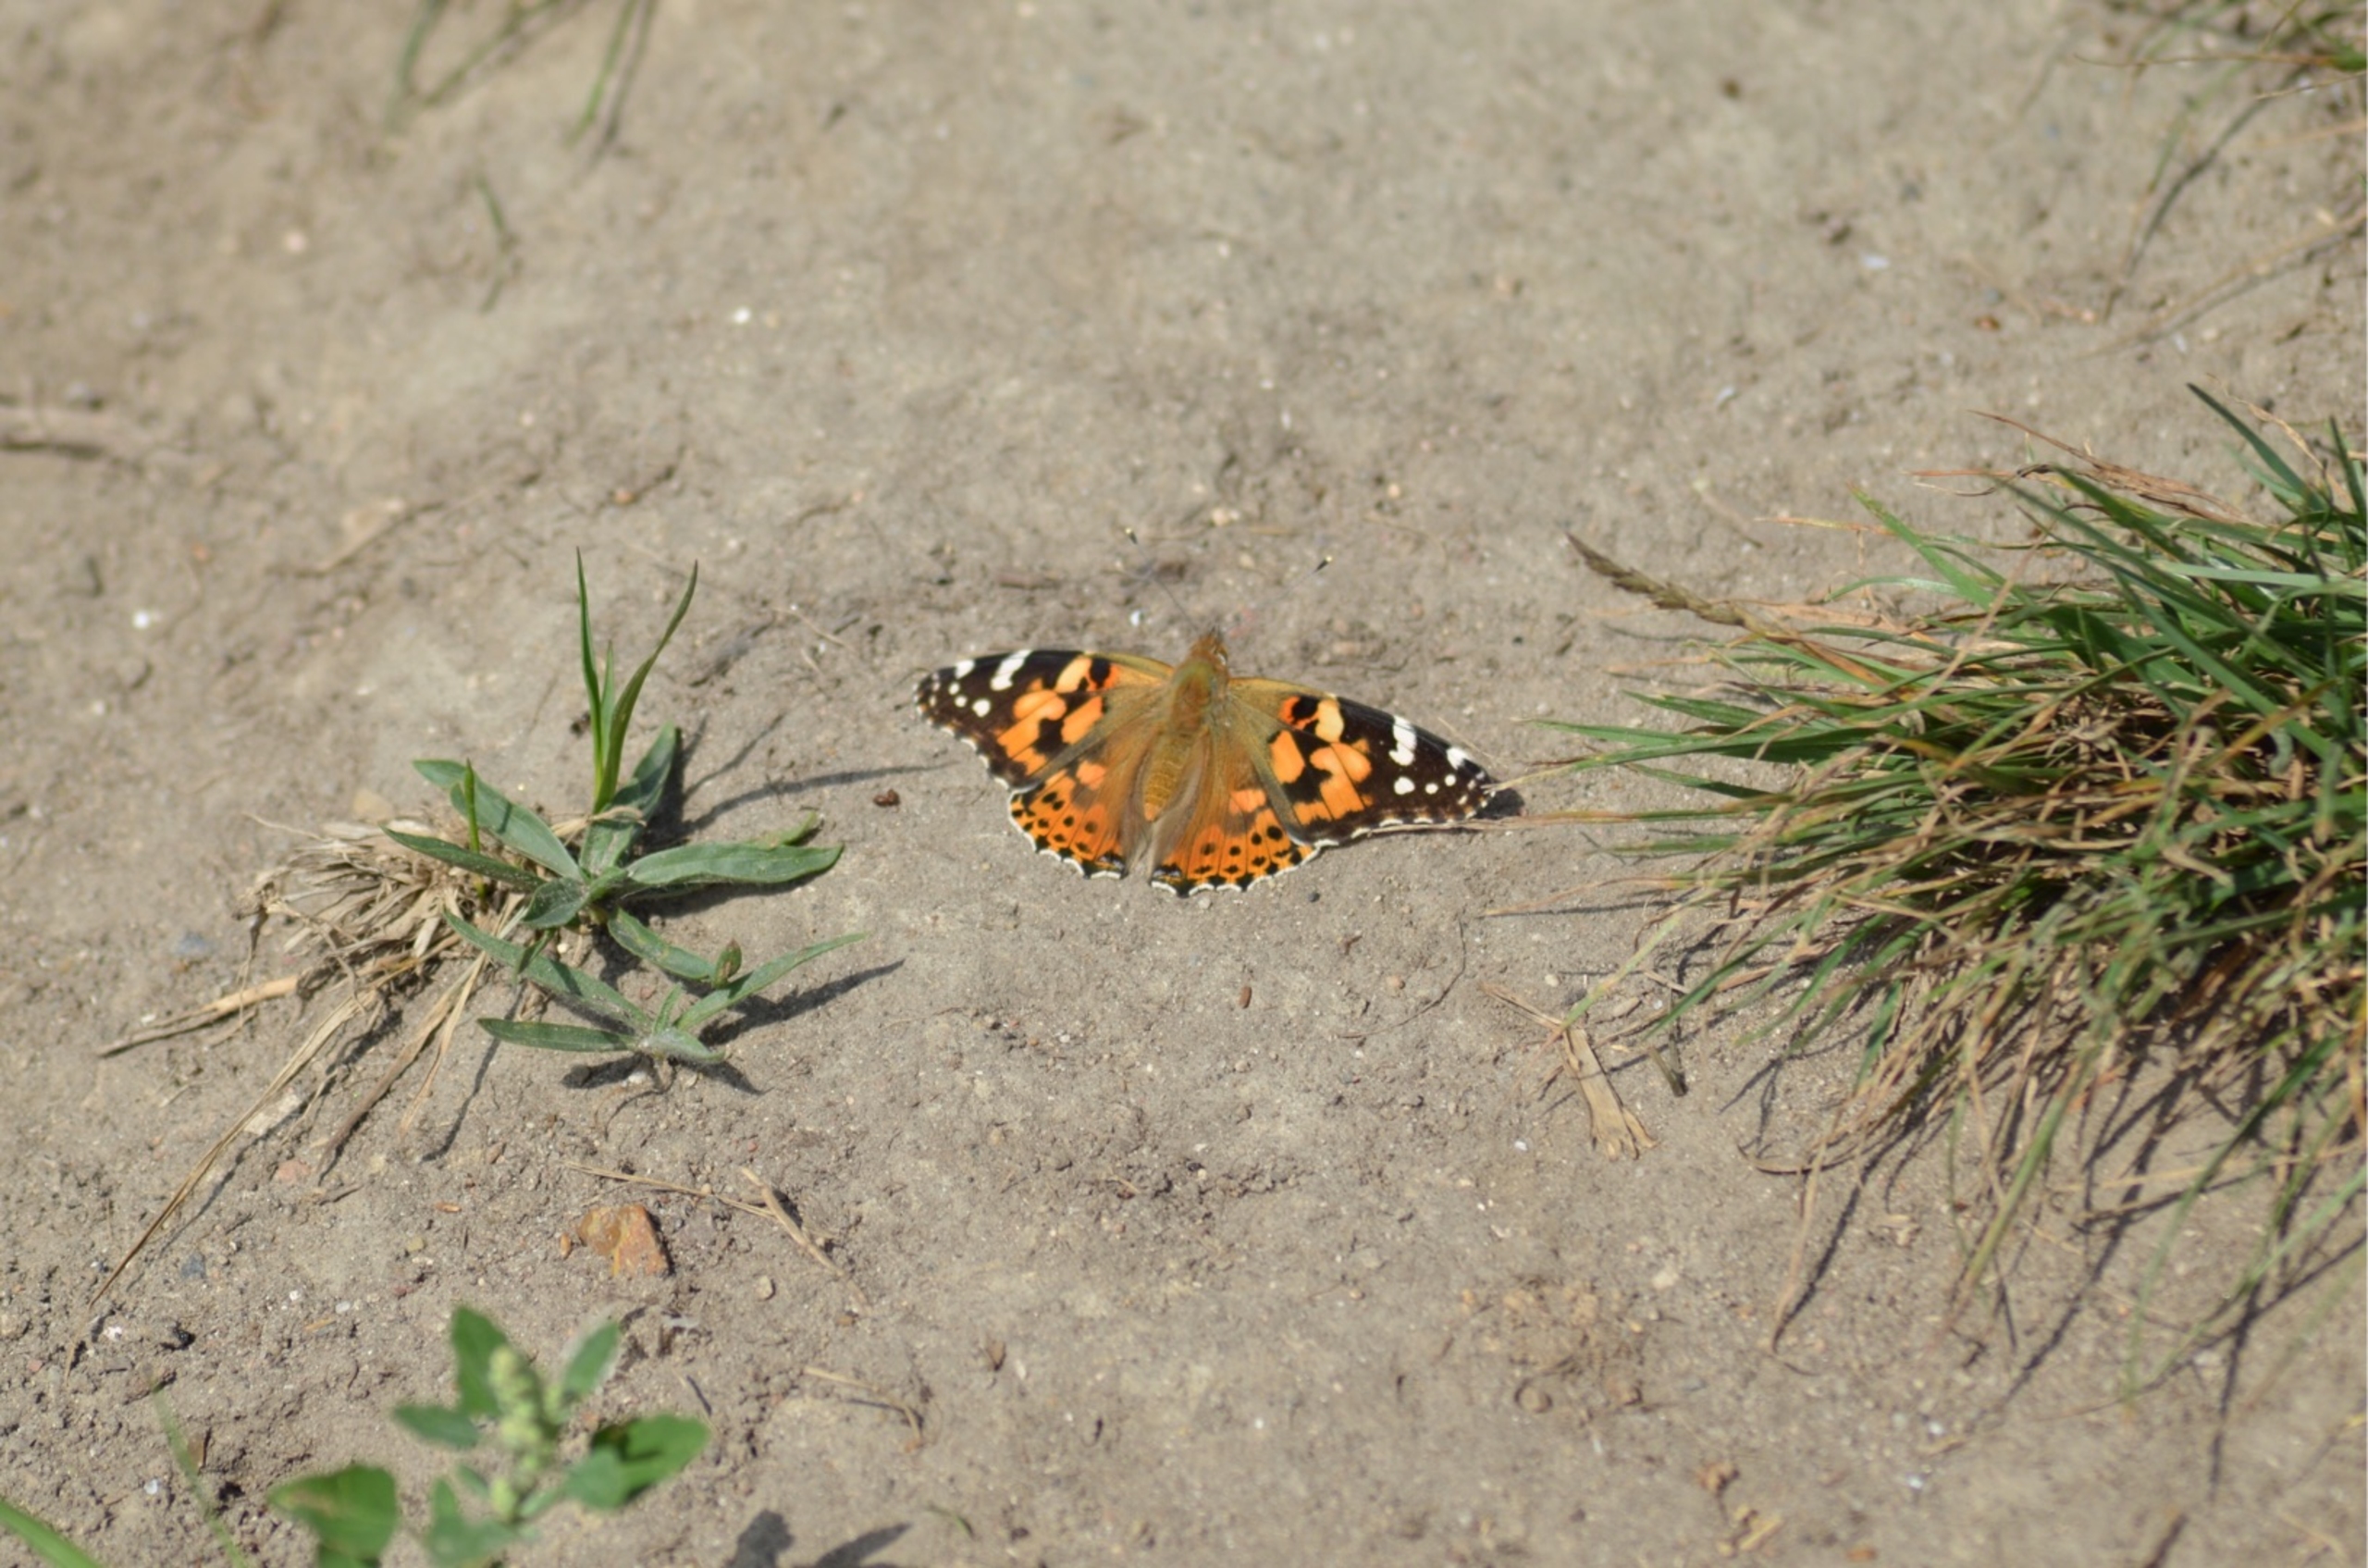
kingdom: Animalia
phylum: Arthropoda
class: Insecta
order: Lepidoptera
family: Nymphalidae
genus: Vanessa
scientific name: Vanessa cardui
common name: Tidselsommerfugl
